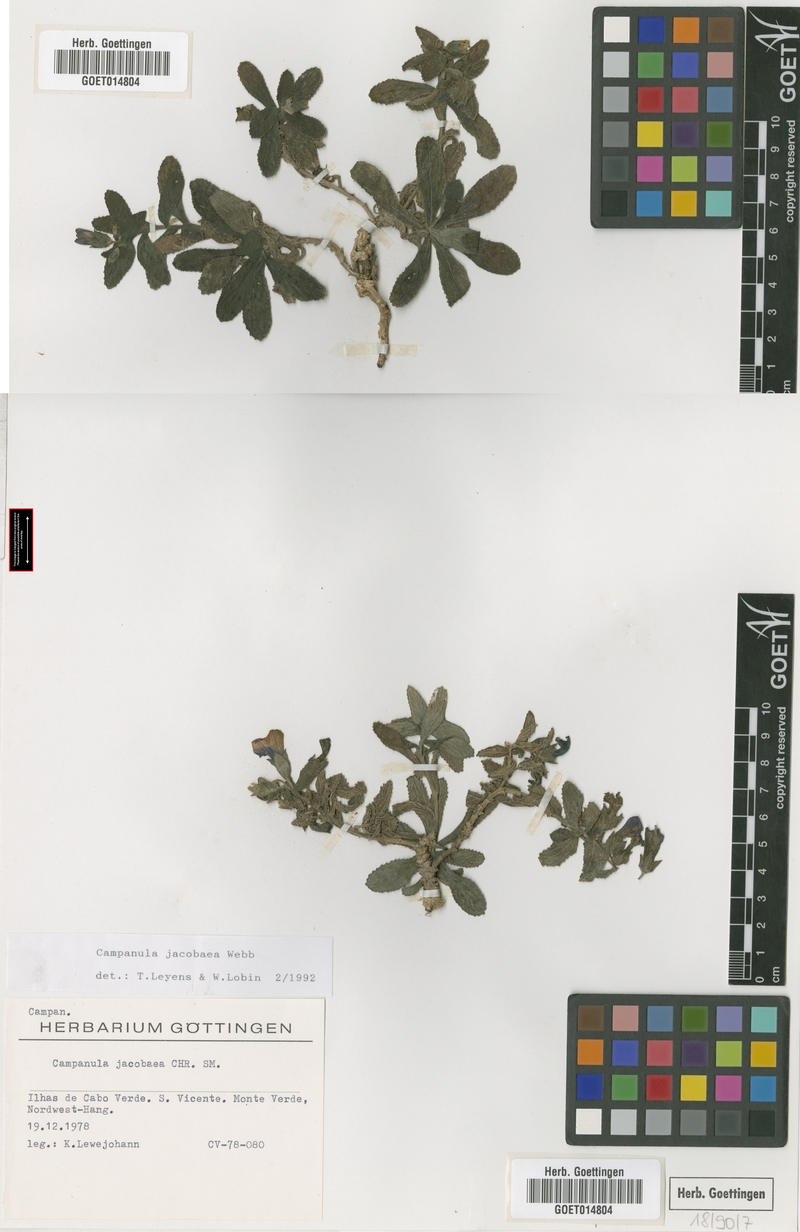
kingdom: Plantae
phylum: Tracheophyta
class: Magnoliopsida
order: Asterales
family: Campanulaceae
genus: Campanula
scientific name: Campanula jacobaea
